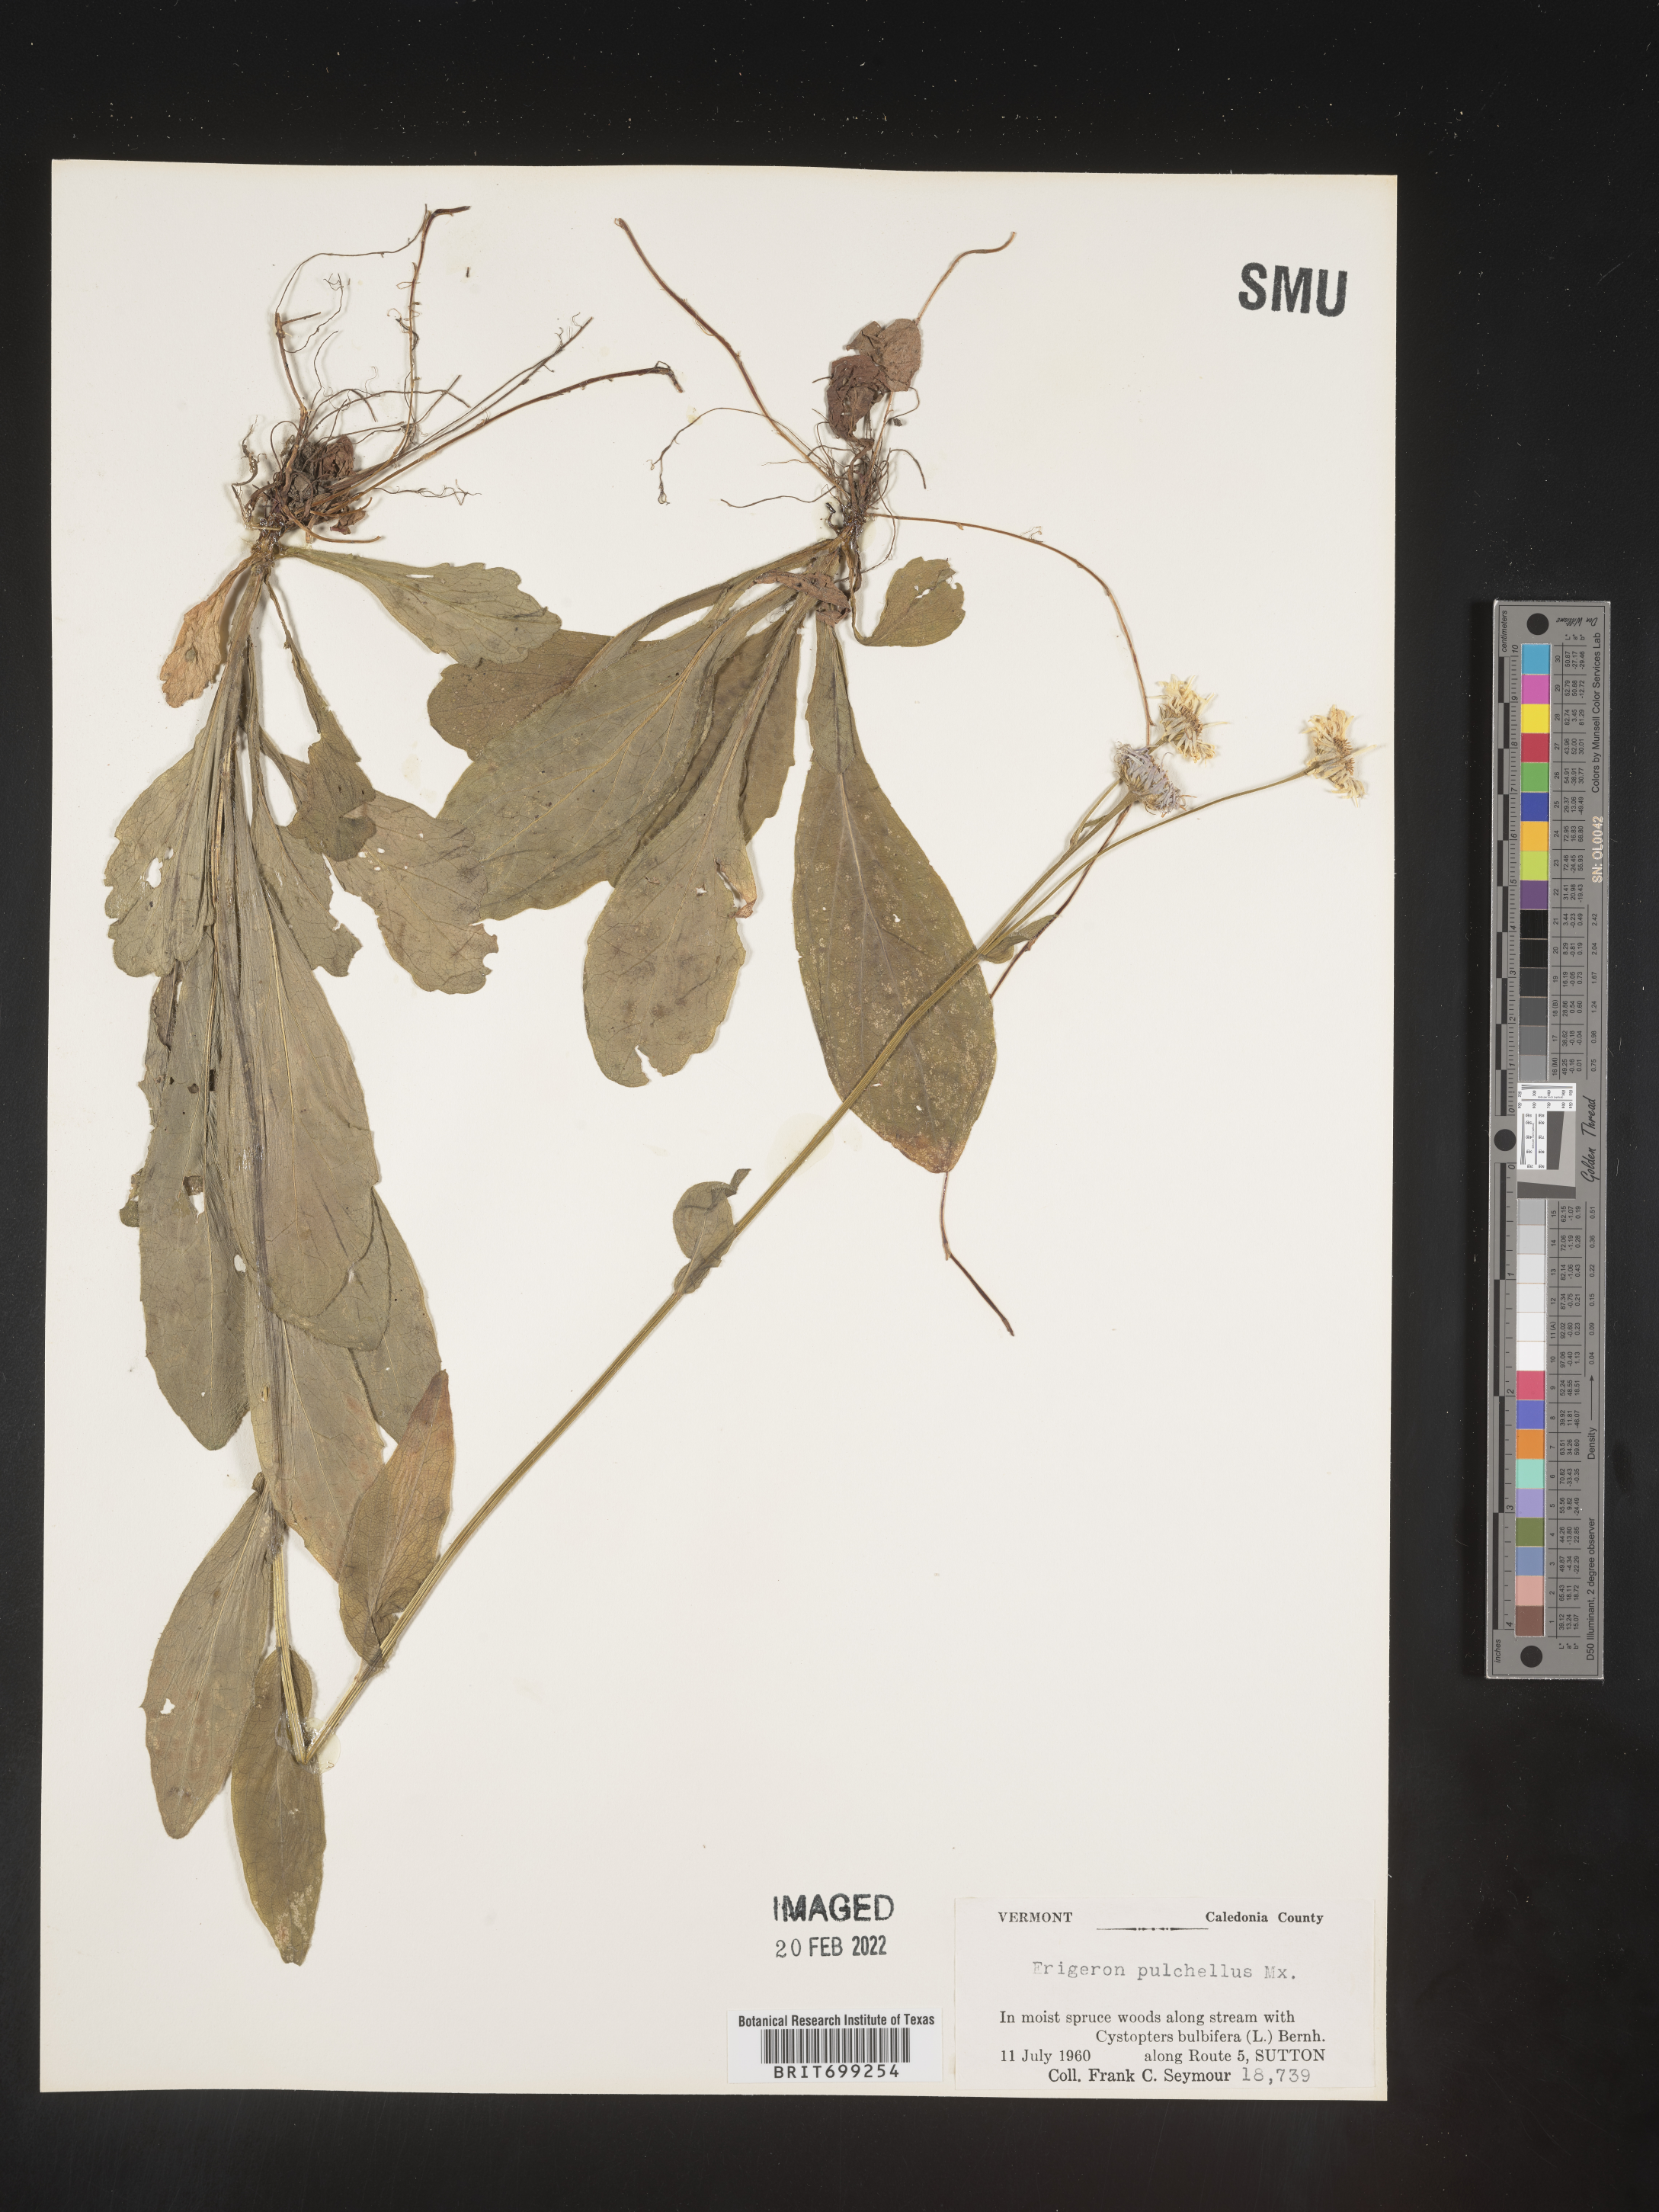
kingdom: Plantae
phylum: Tracheophyta
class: Magnoliopsida
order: Asterales
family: Asteraceae
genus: Erigeron
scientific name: Erigeron pulchellus
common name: Hairy fleabane
